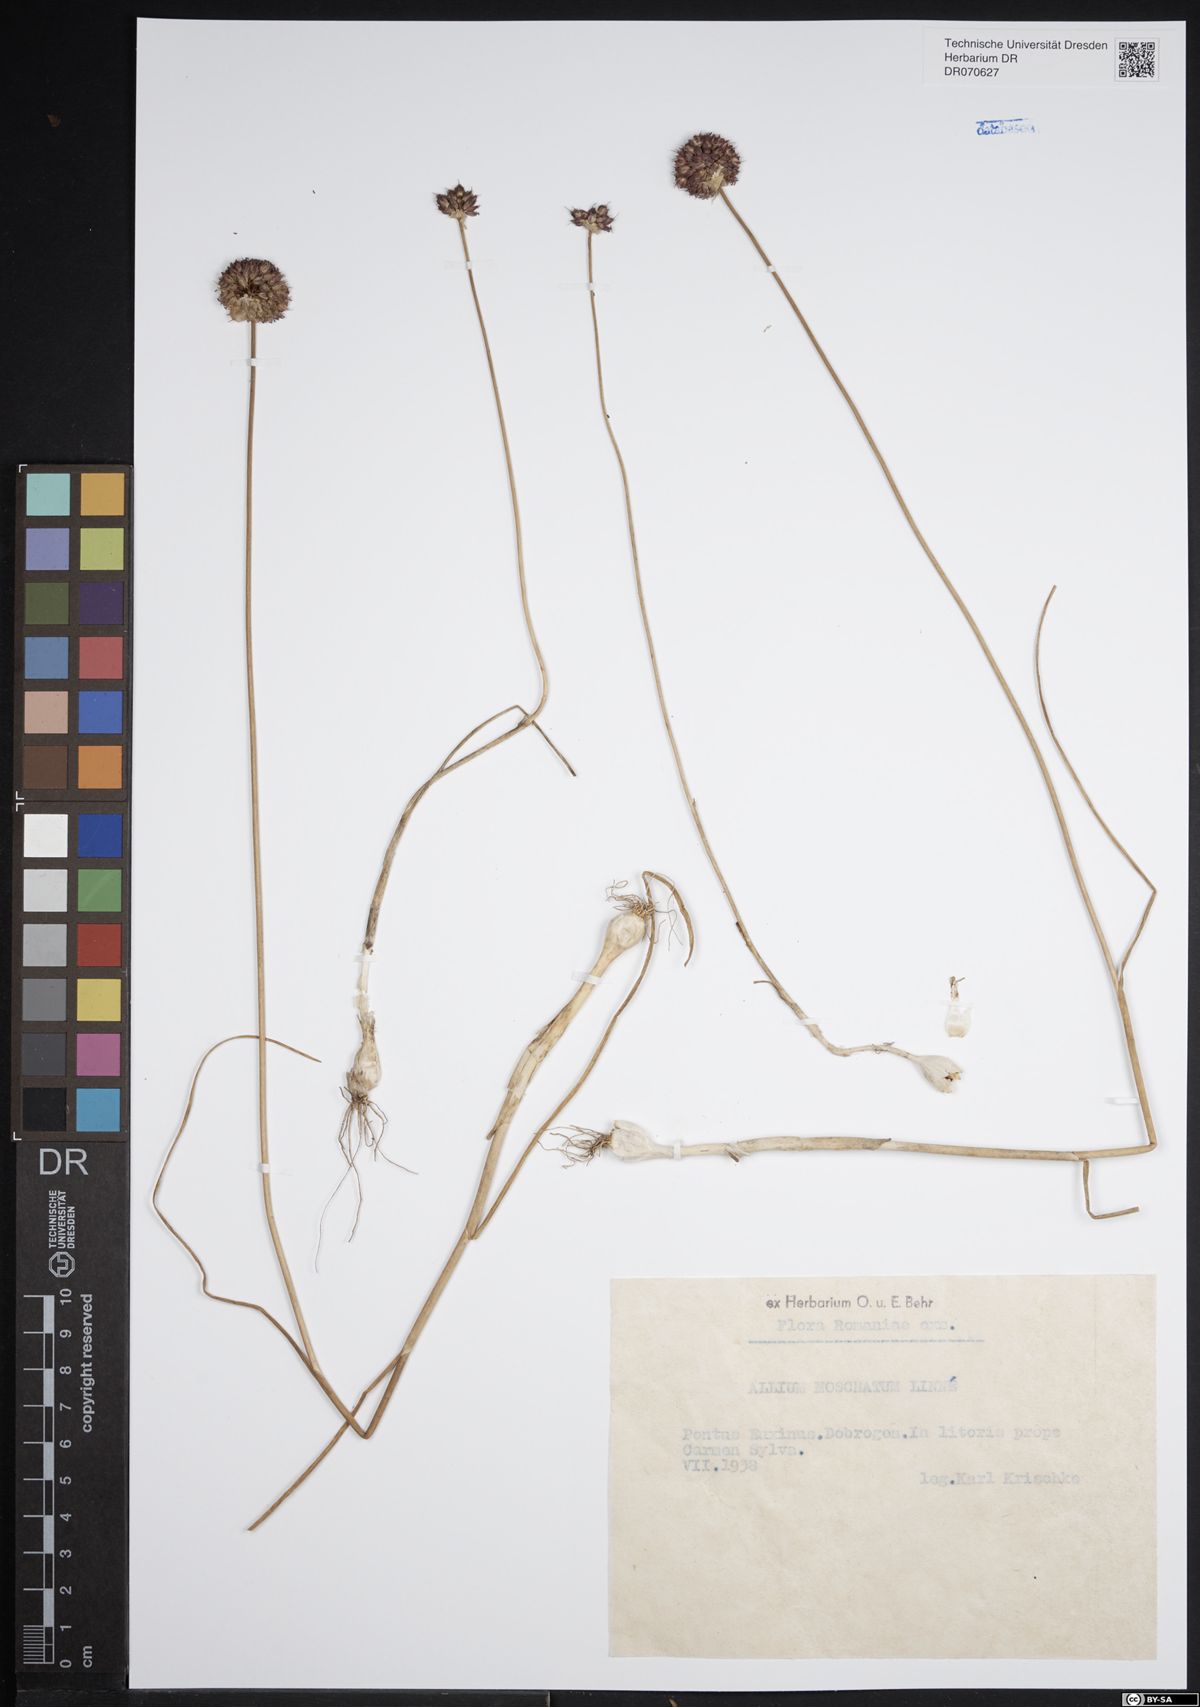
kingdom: Plantae
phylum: Tracheophyta
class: Liliopsida
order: Asparagales
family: Amaryllidaceae
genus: Allium
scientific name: Allium moschatum
